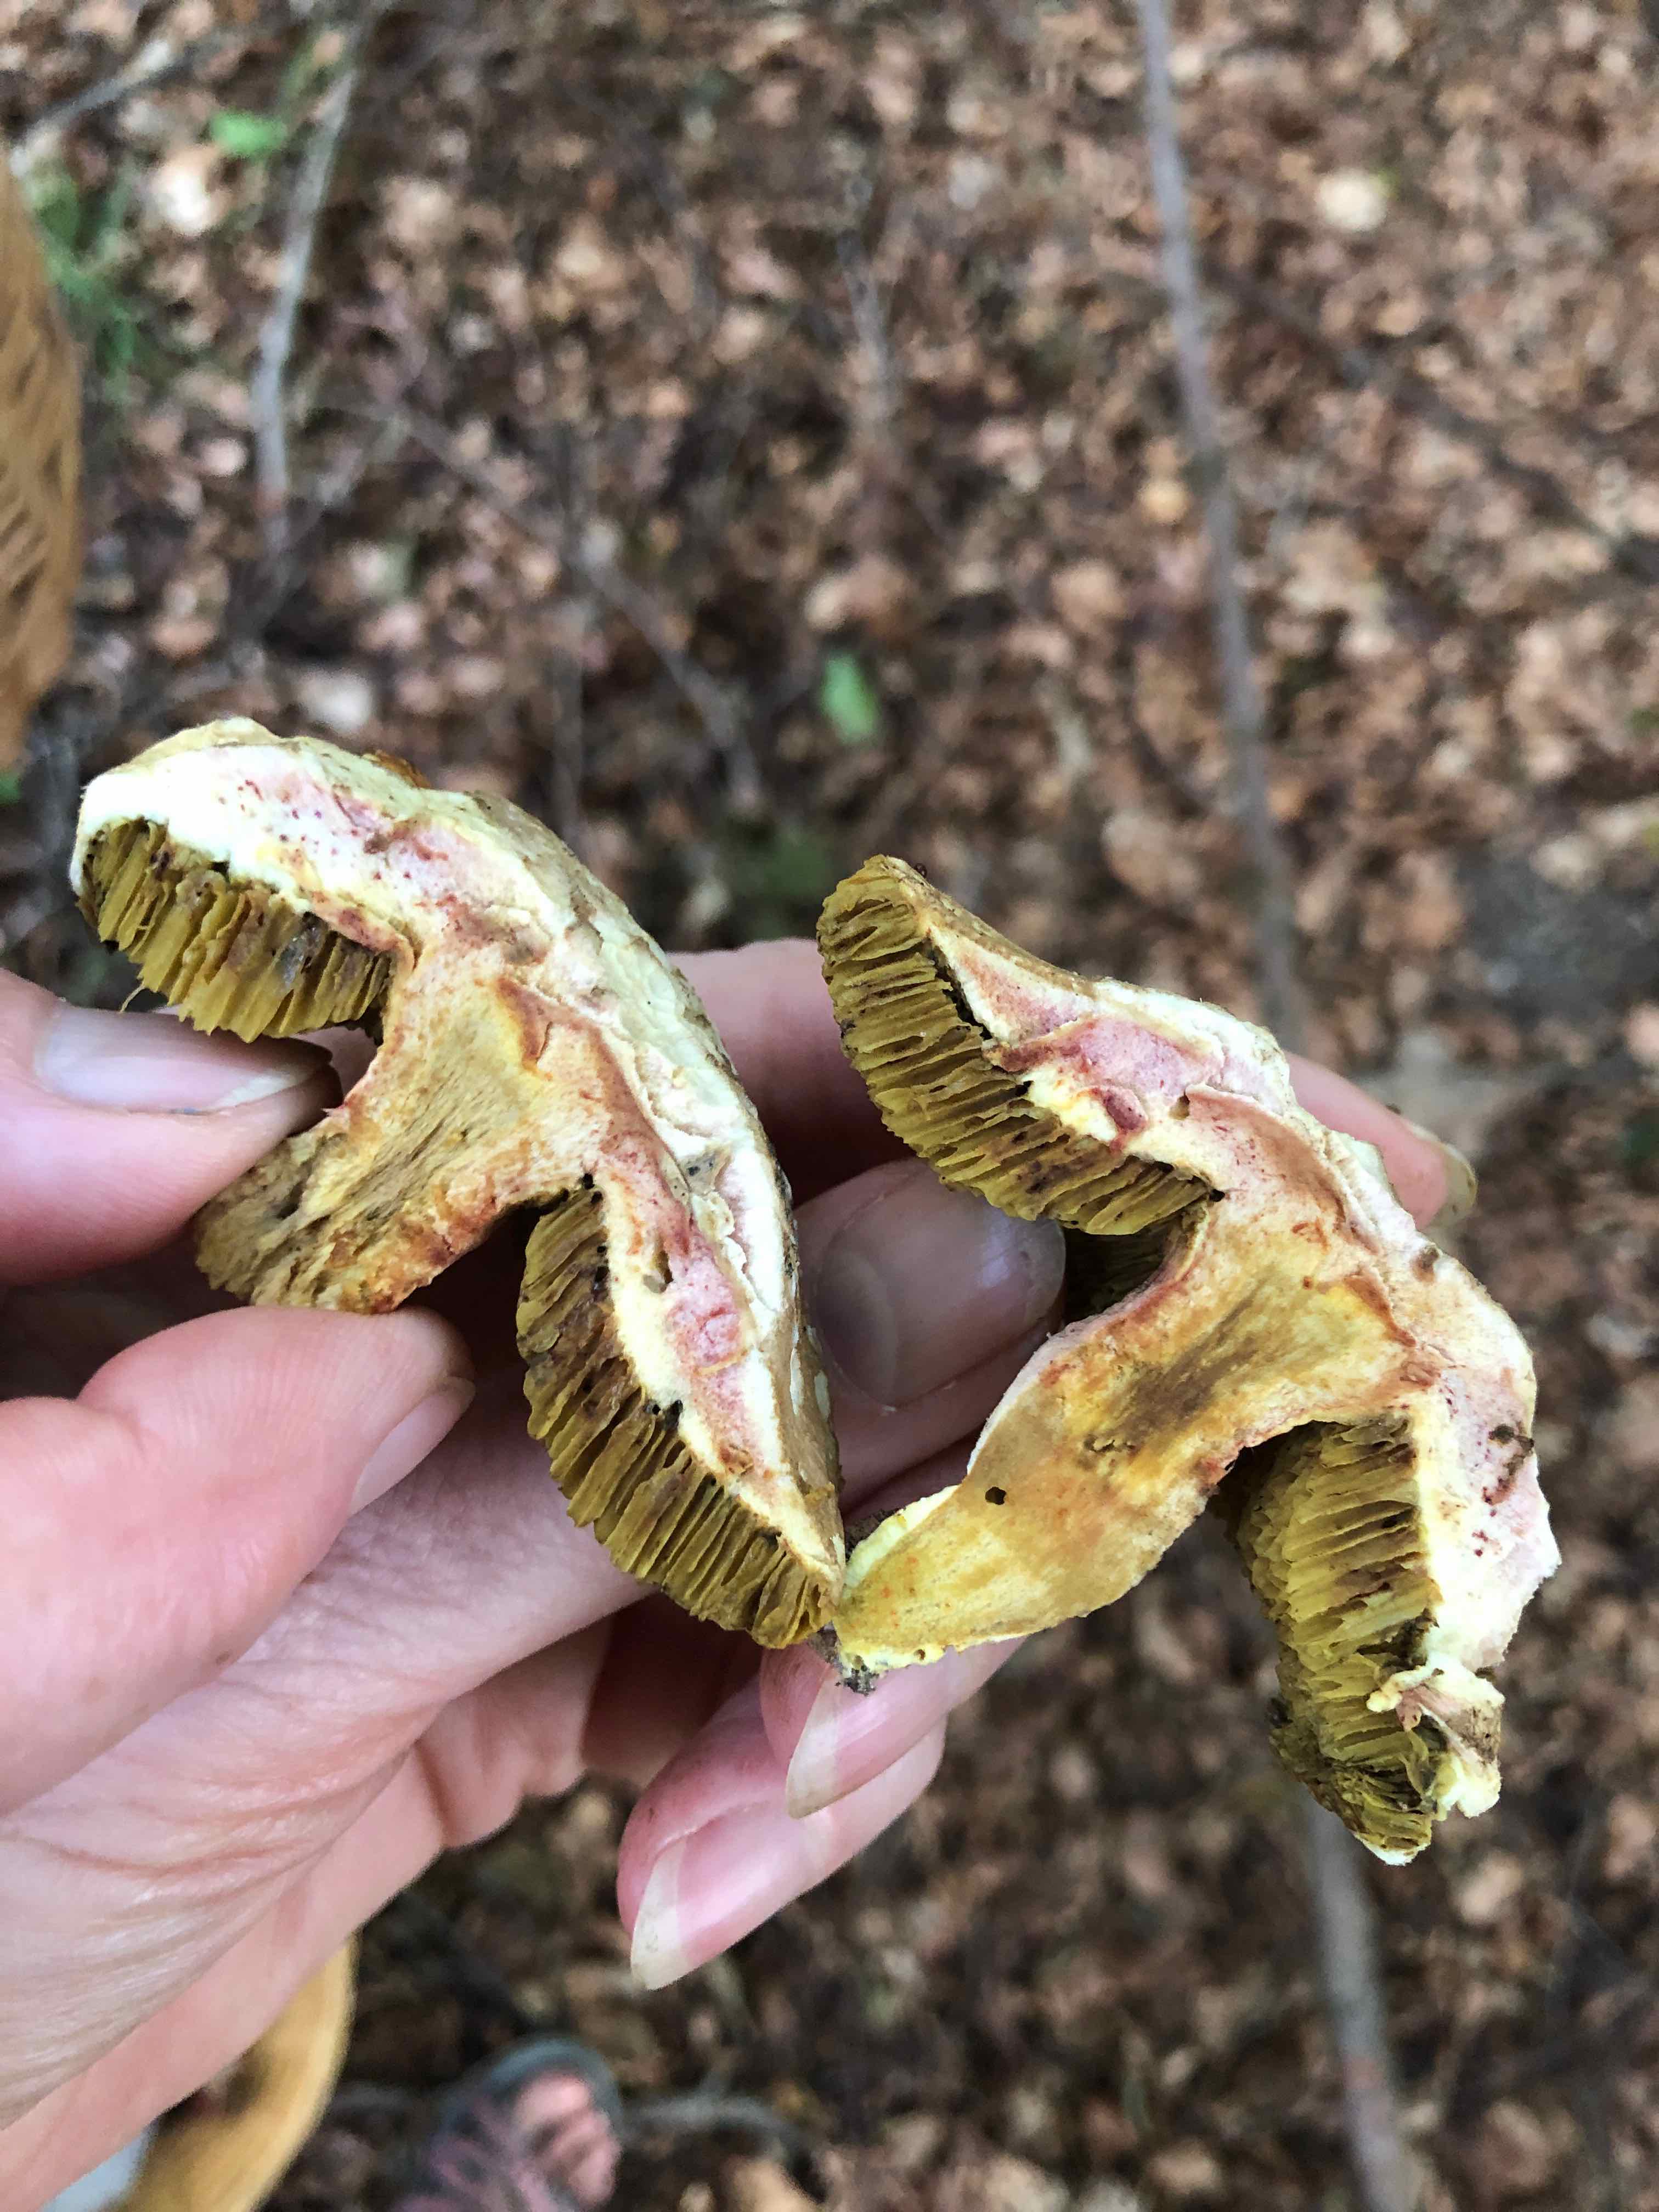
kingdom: Fungi
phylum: Basidiomycota
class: Agaricomycetes
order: Boletales
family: Boletaceae
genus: Xerocomellus
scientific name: Xerocomellus
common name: dværgrørhat
